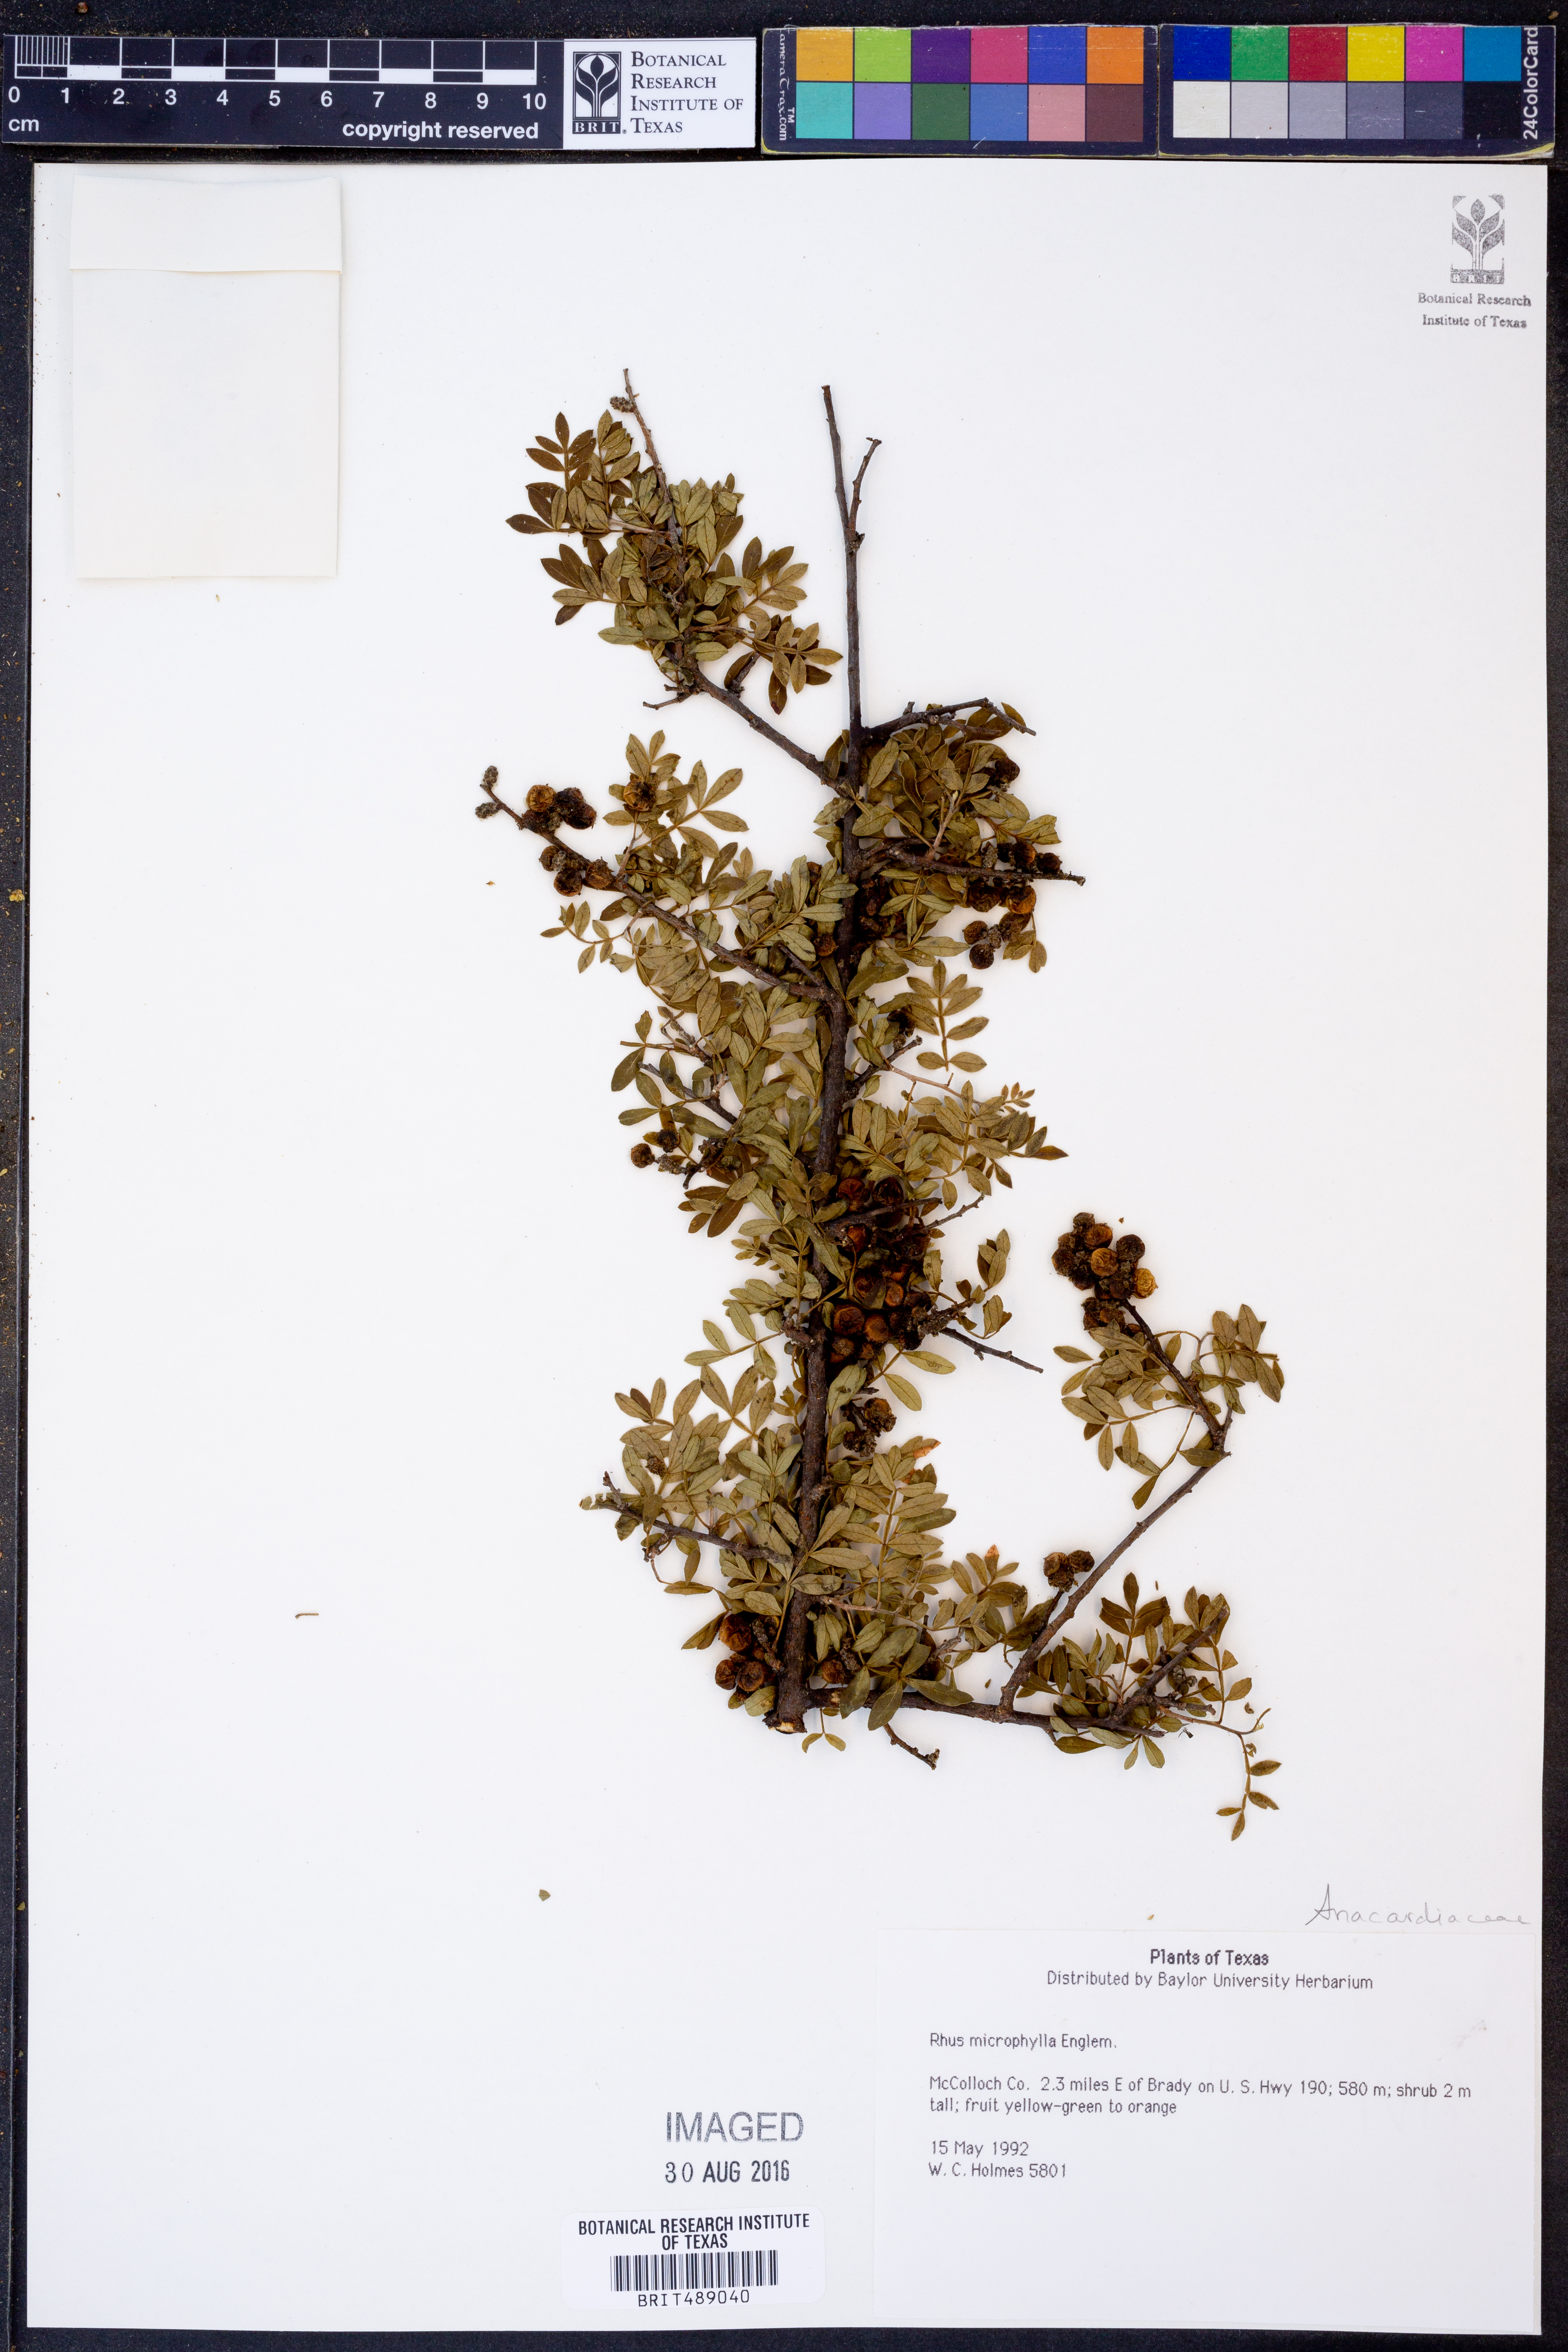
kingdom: Plantae
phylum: Tracheophyta
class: Magnoliopsida
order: Sapindales
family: Anacardiaceae
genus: Rhus
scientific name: Rhus microphylla
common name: Desert sumac
